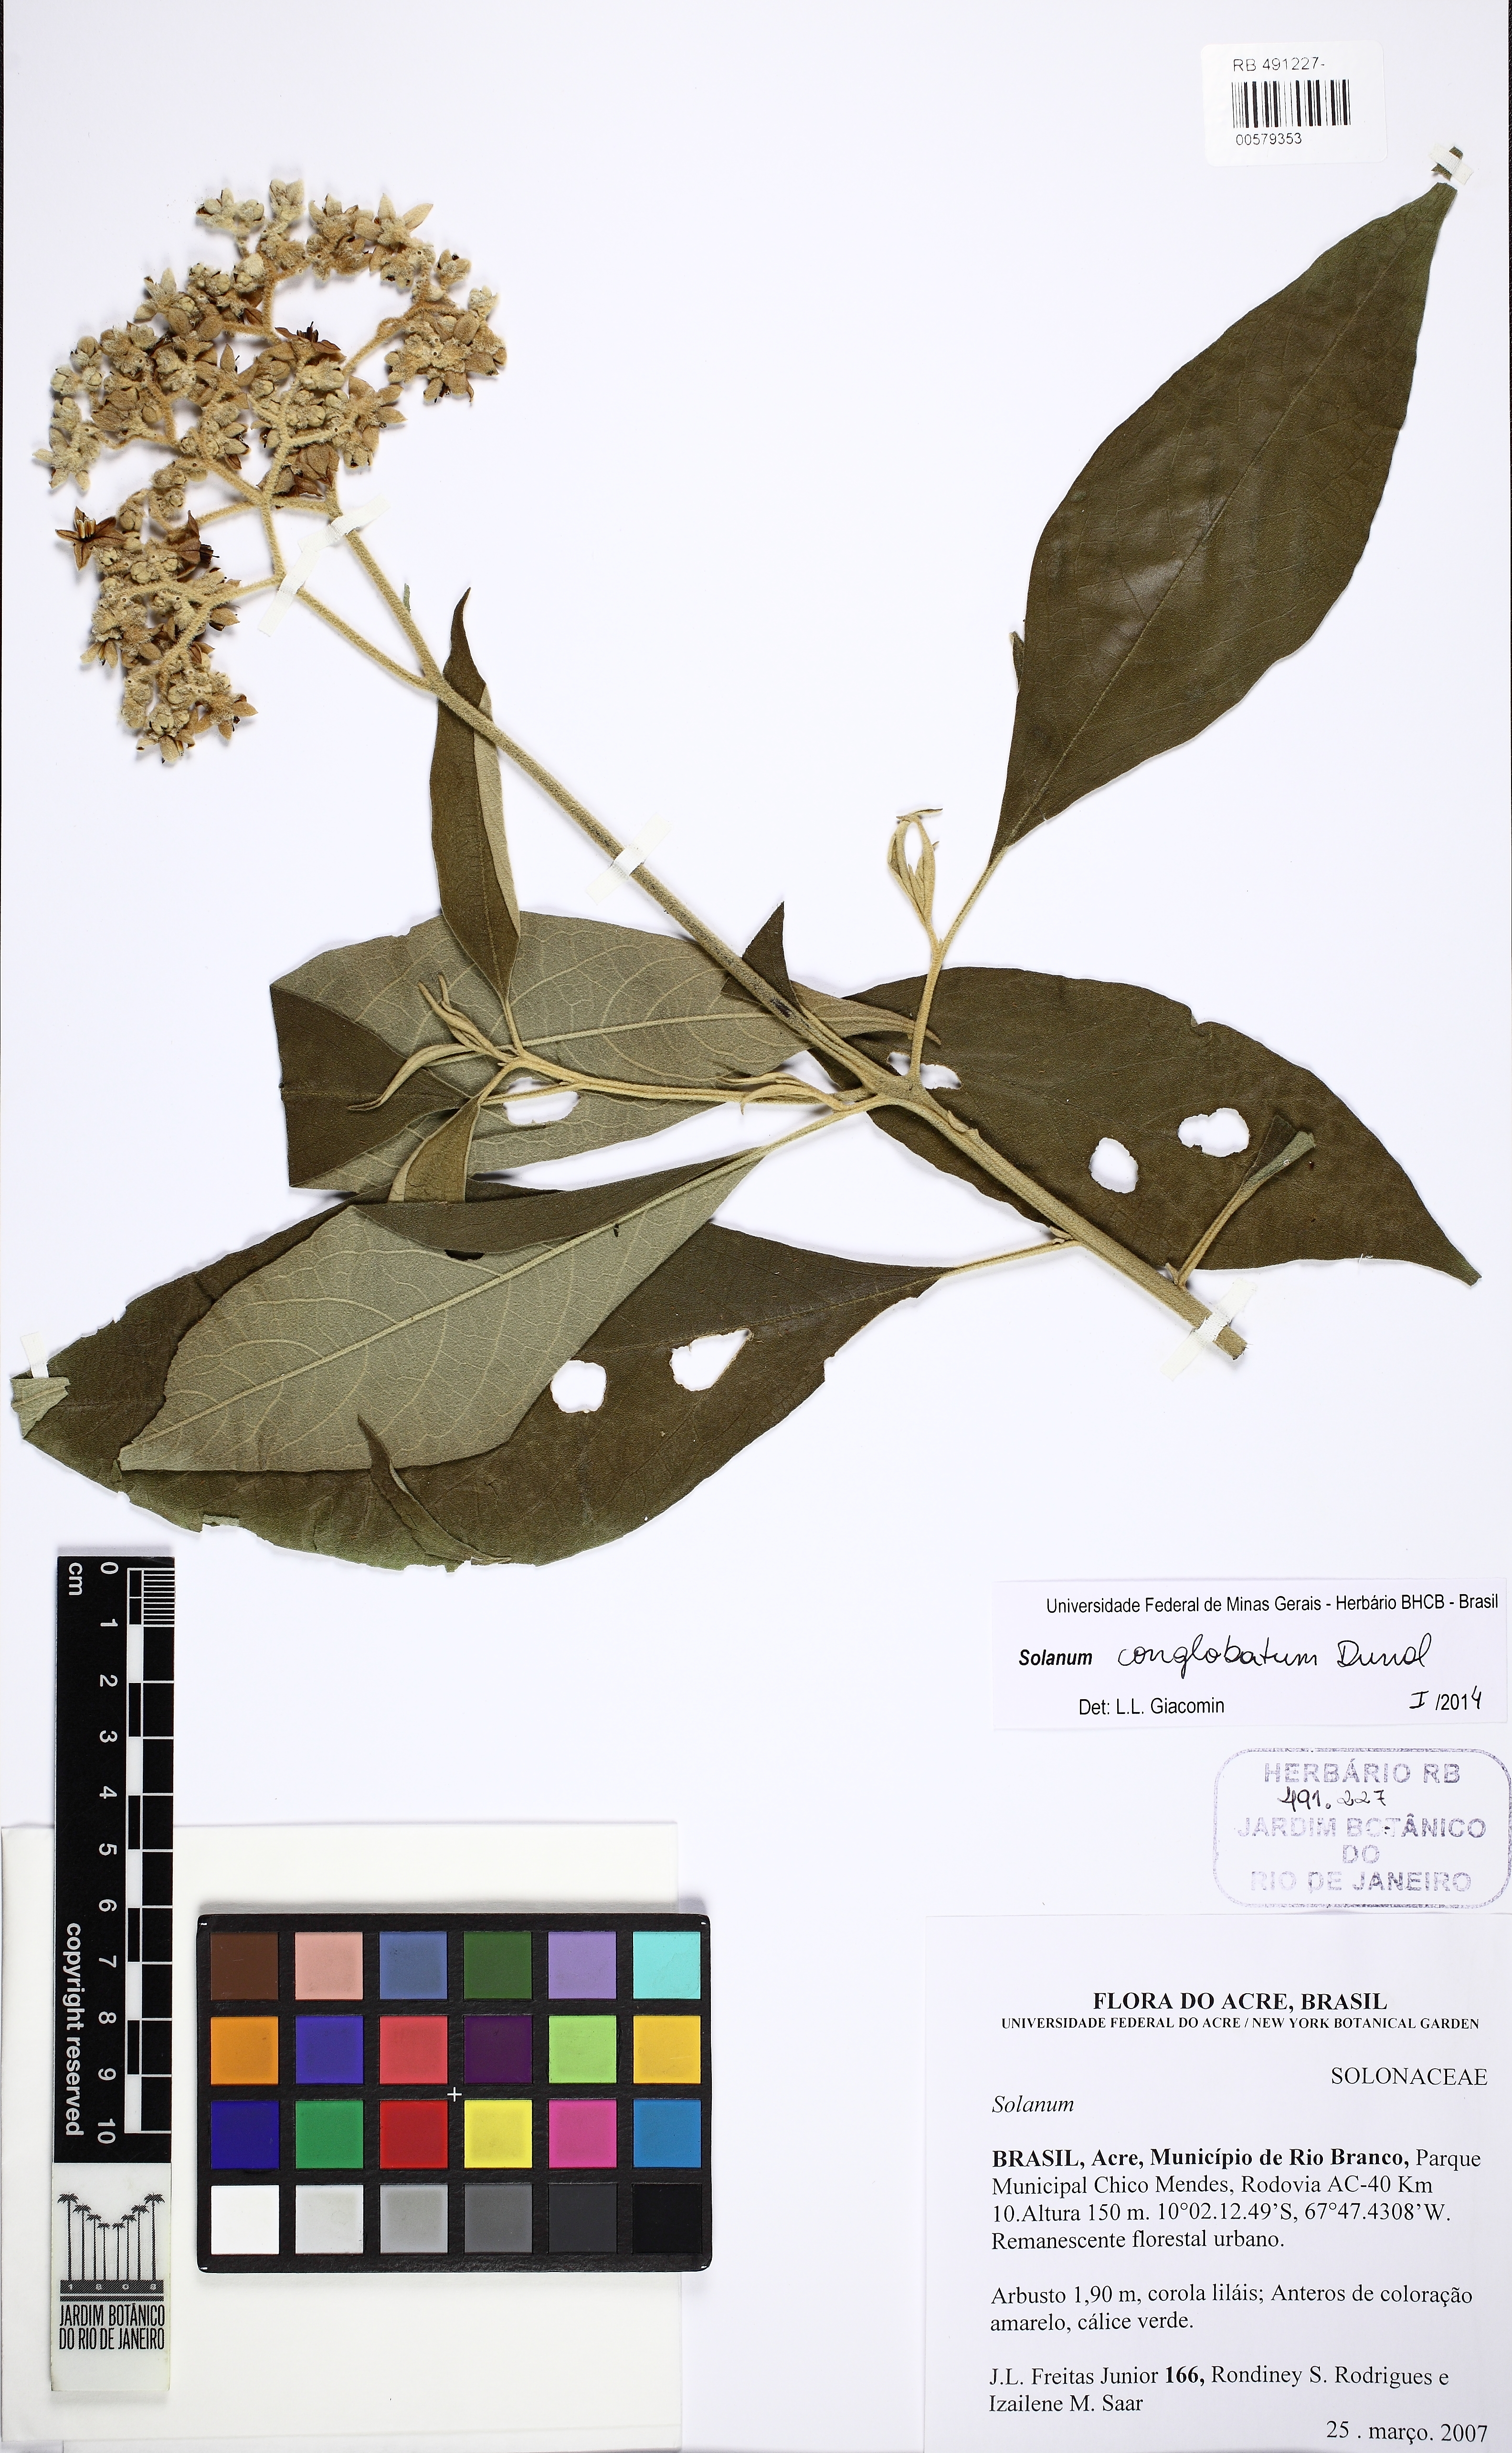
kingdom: Plantae
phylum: Tracheophyta
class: Magnoliopsida
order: Solanales
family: Solanaceae
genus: Solanum
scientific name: Solanum conglobatum
